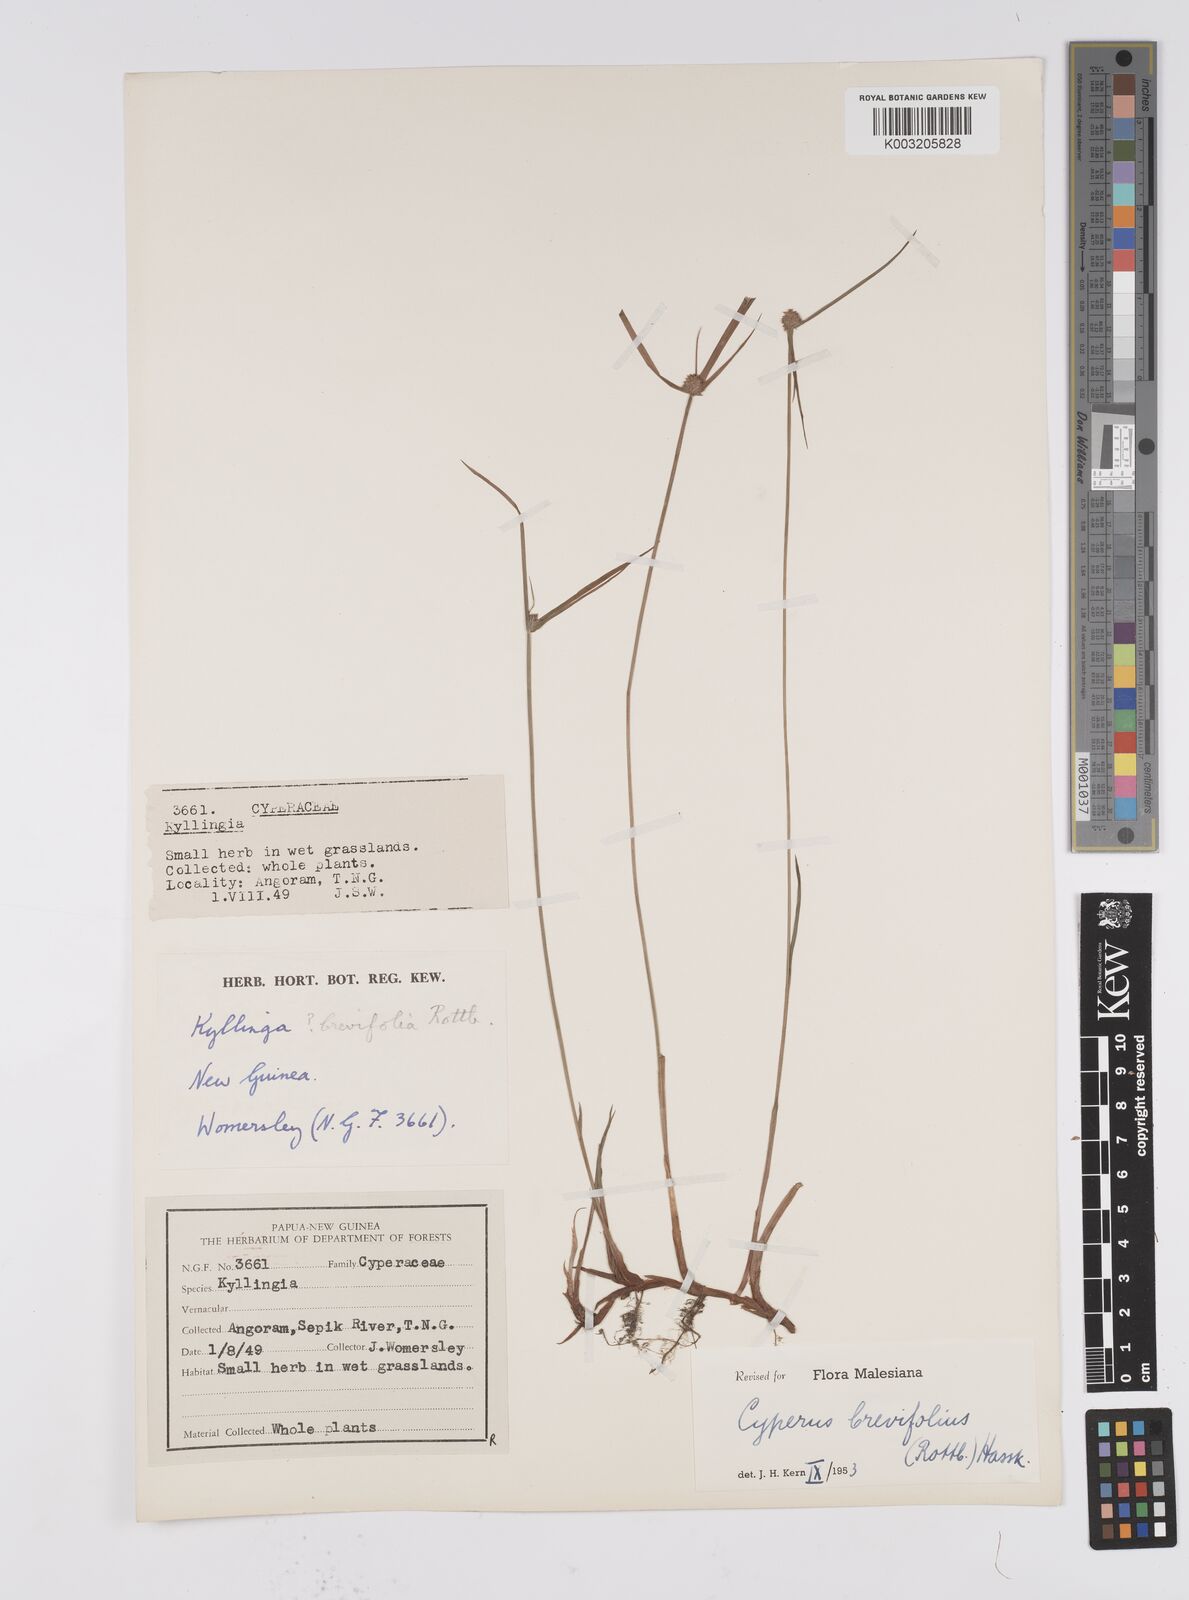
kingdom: Plantae
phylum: Tracheophyta
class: Liliopsida
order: Poales
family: Cyperaceae
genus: Cyperus
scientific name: Cyperus brevifolius
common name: Globe kyllinga
